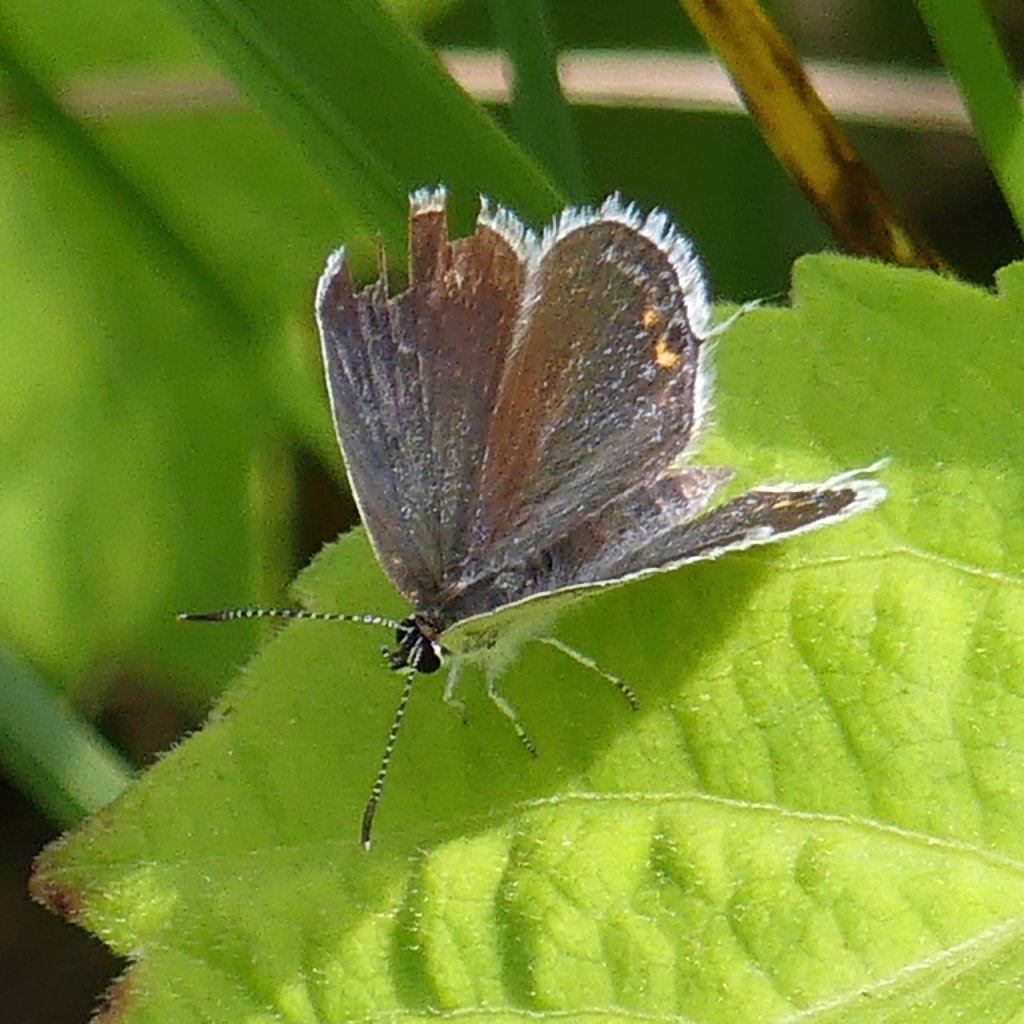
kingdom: Animalia
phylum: Arthropoda
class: Insecta
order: Lepidoptera
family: Lycaenidae
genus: Elkalyce
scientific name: Elkalyce comyntas
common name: Eastern Tailed-Blue
